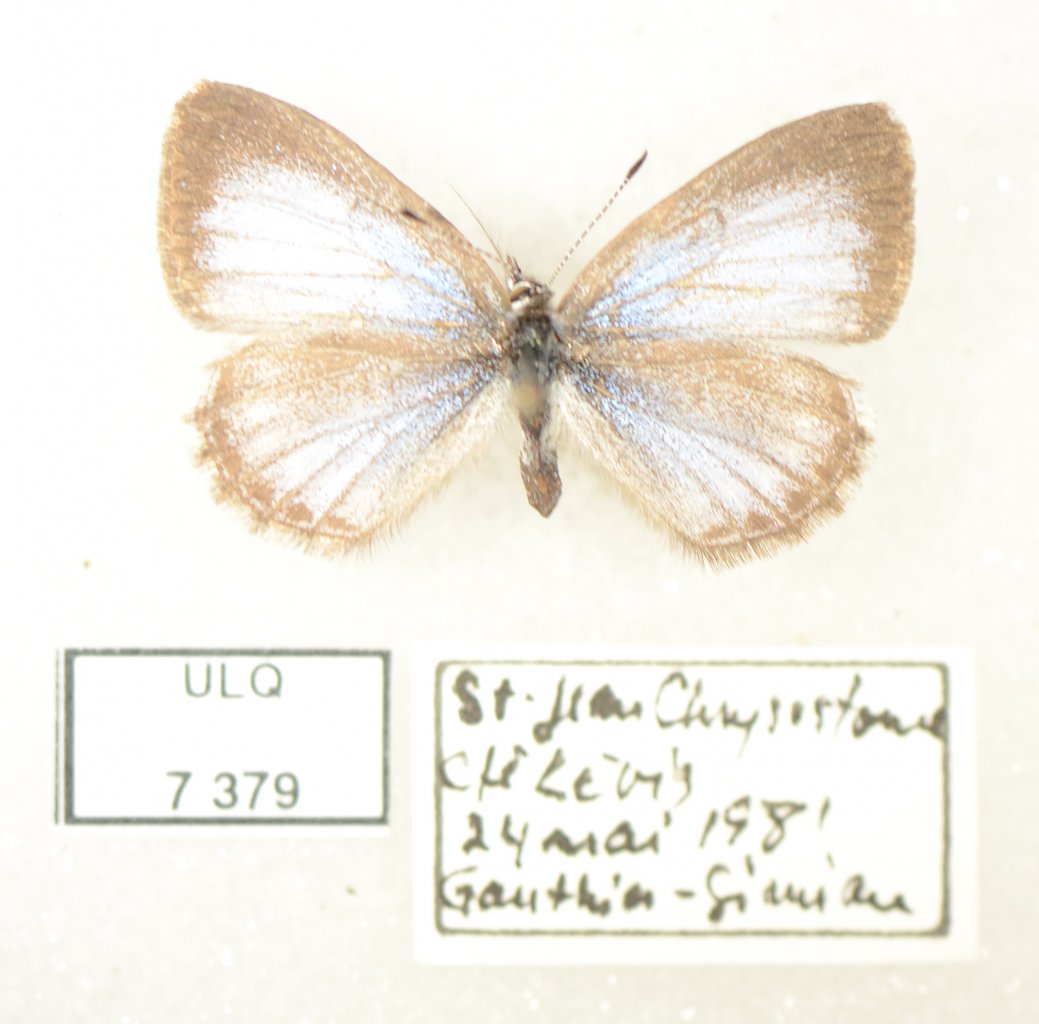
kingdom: Animalia
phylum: Arthropoda
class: Insecta
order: Lepidoptera
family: Lycaenidae
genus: Celastrina
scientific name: Celastrina lucia
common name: Northern Spring Azure
